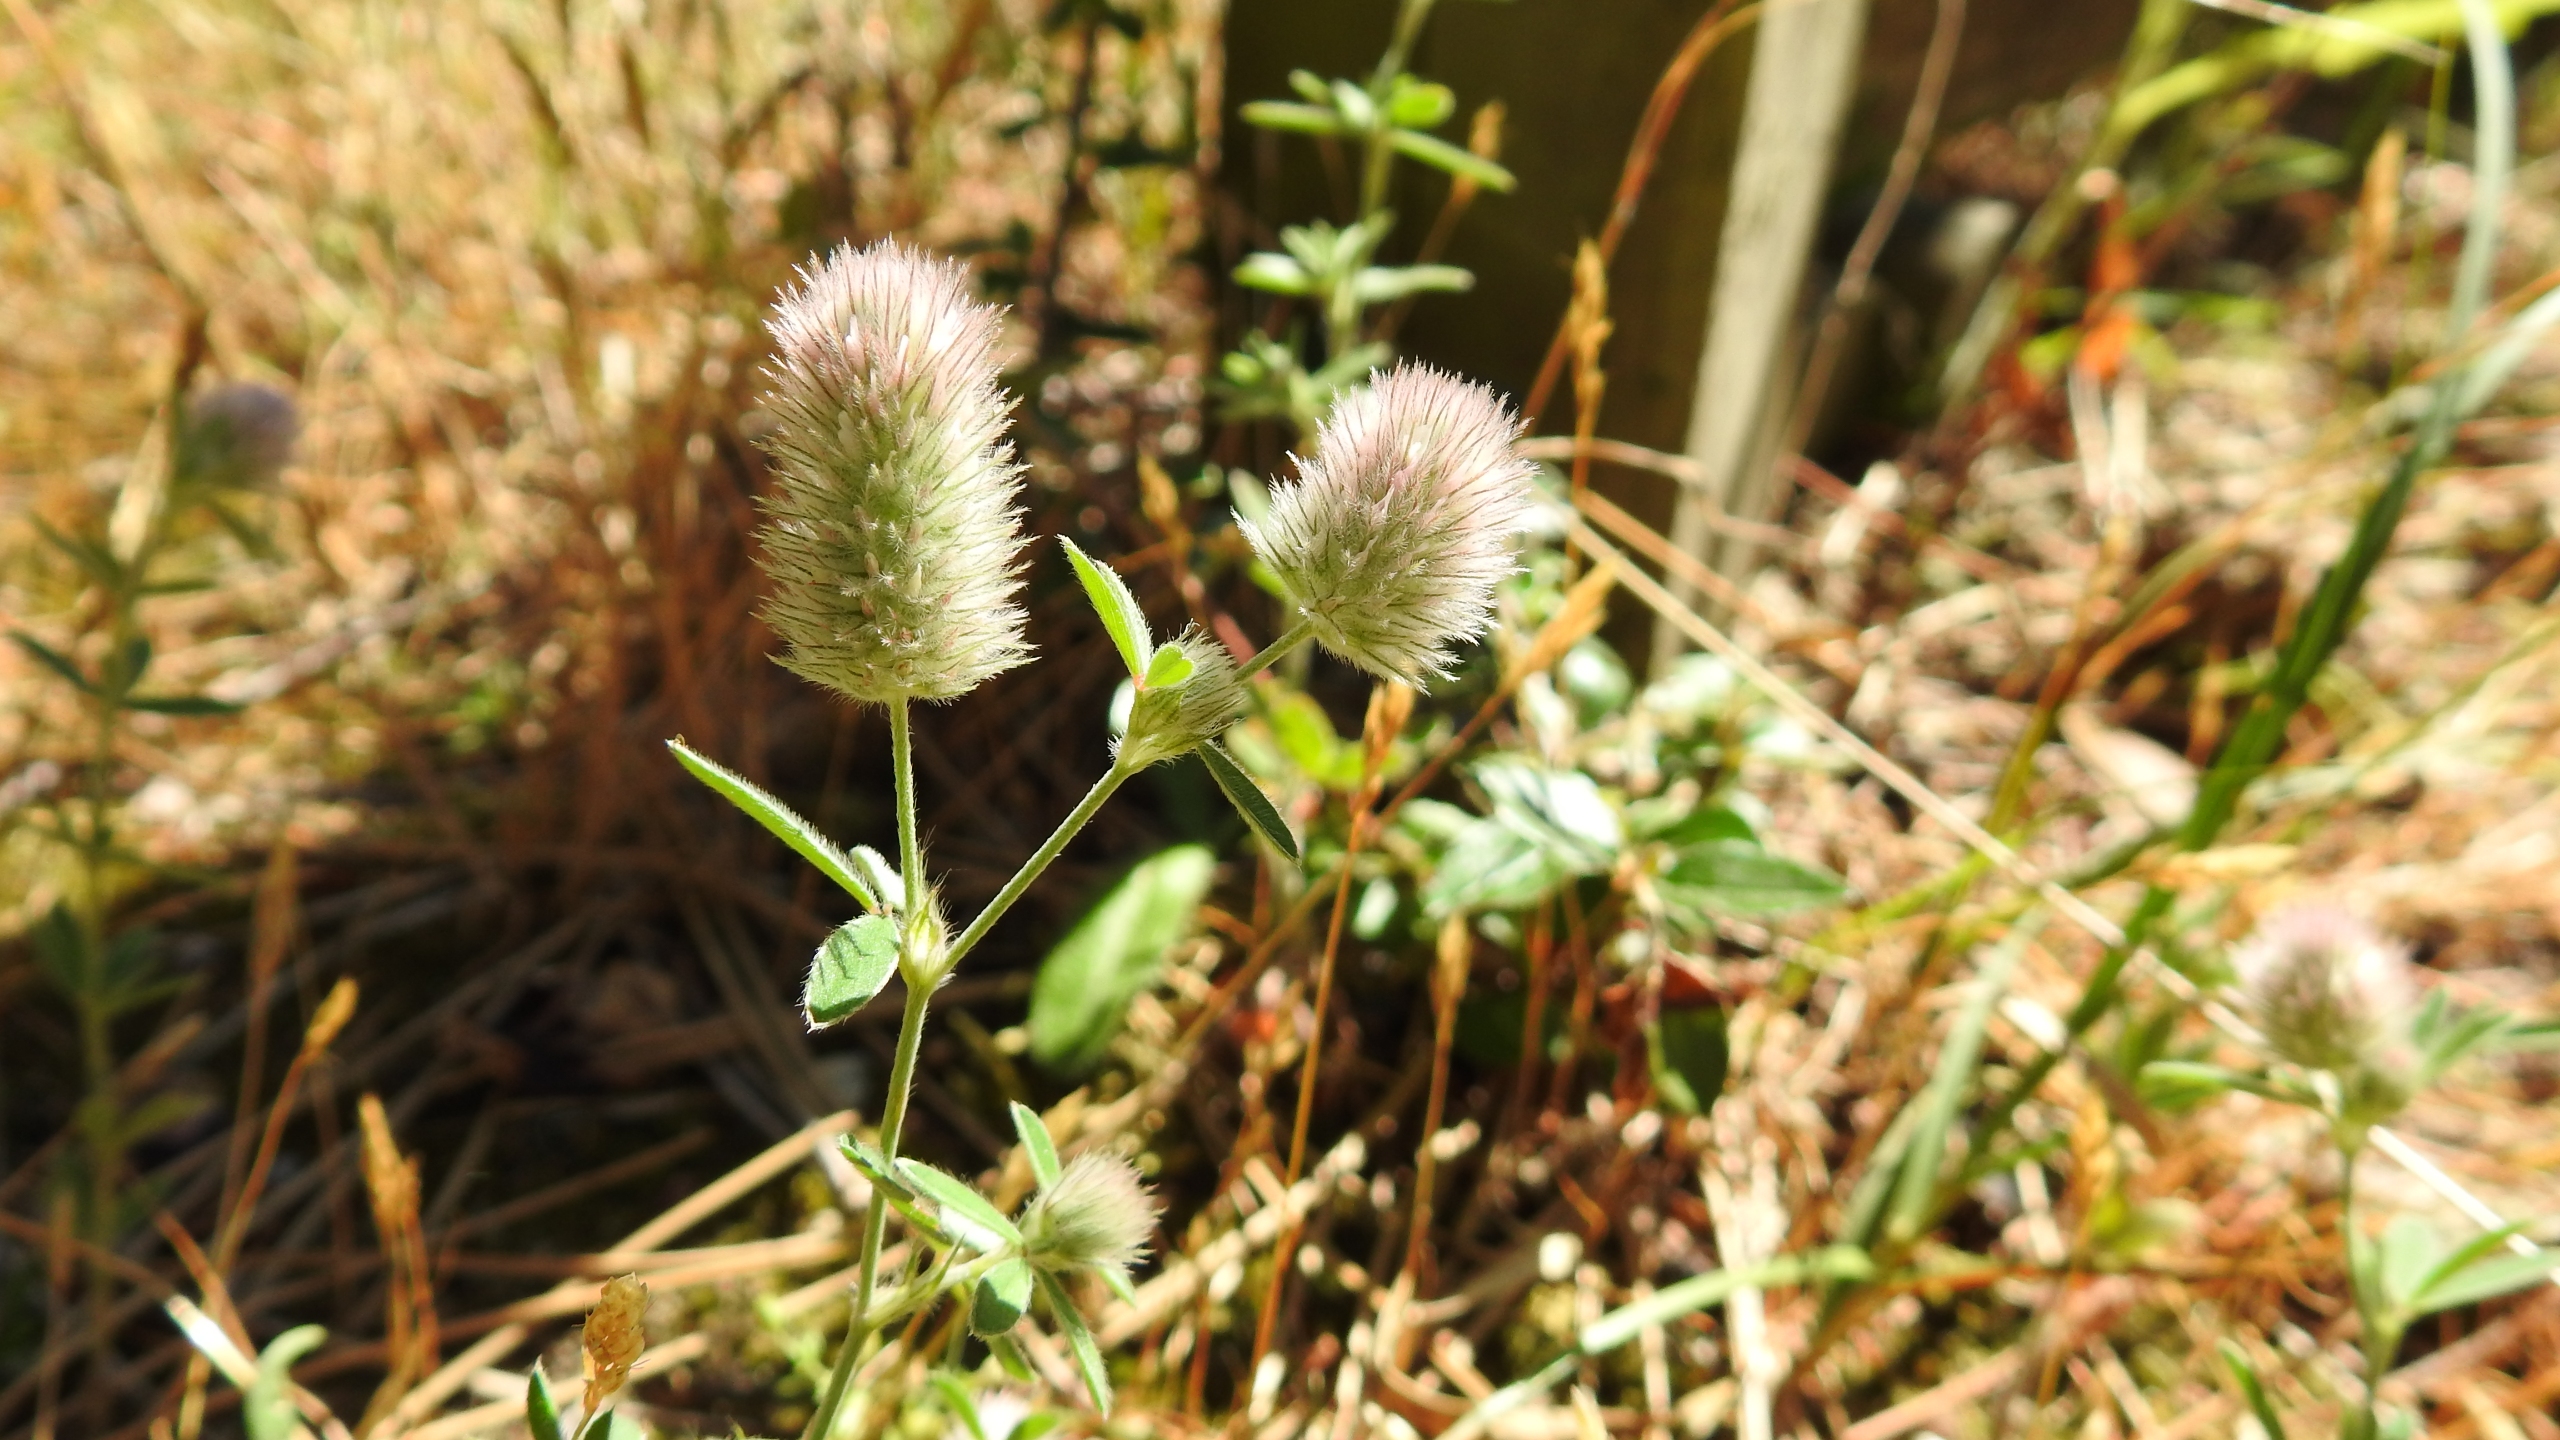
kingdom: Plantae
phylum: Tracheophyta
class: Magnoliopsida
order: Fabales
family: Fabaceae
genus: Trifolium
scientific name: Trifolium arvense
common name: Hare-kløver
